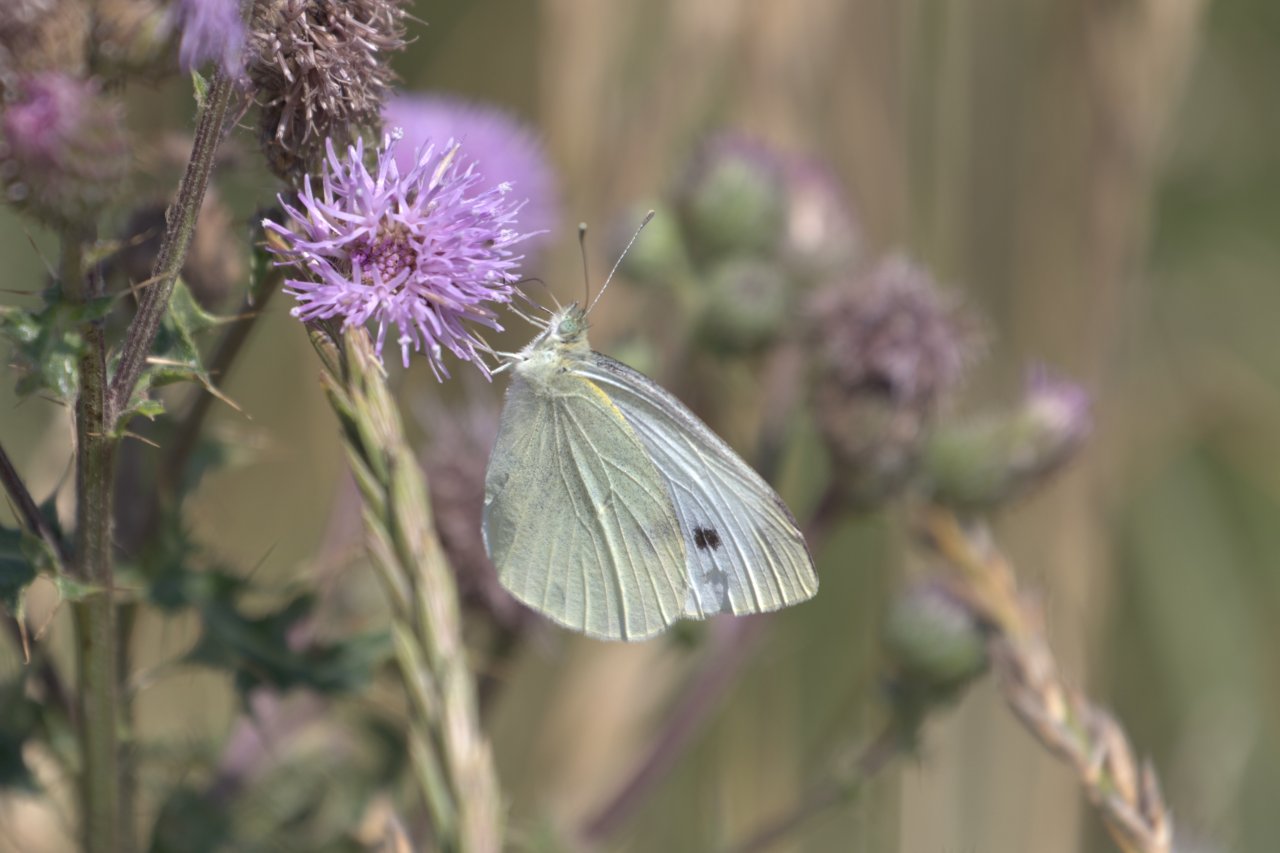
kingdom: Animalia
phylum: Arthropoda
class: Insecta
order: Lepidoptera
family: Pieridae
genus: Pieris
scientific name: Pieris rapae
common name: Cabbage White
